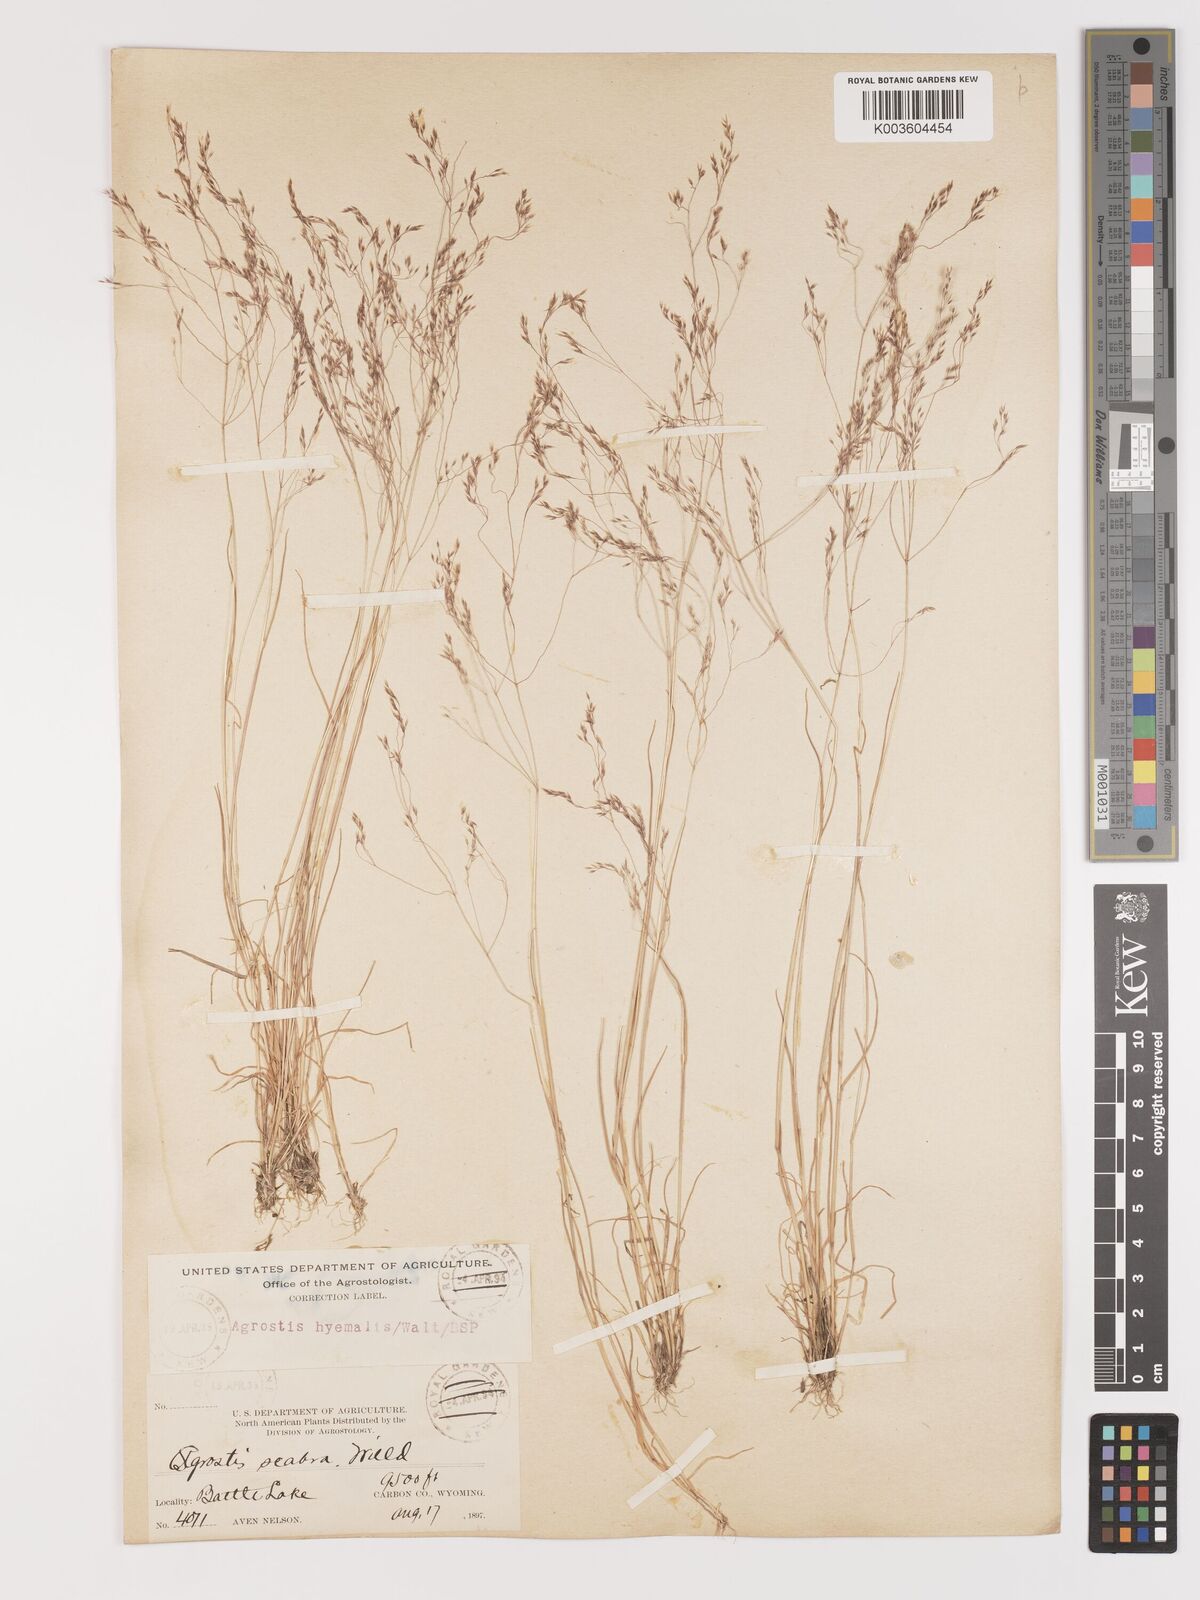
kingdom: Plantae
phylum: Tracheophyta
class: Liliopsida
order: Poales
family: Poaceae
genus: Agrostis
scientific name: Agrostis hyemalis
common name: Small bent
